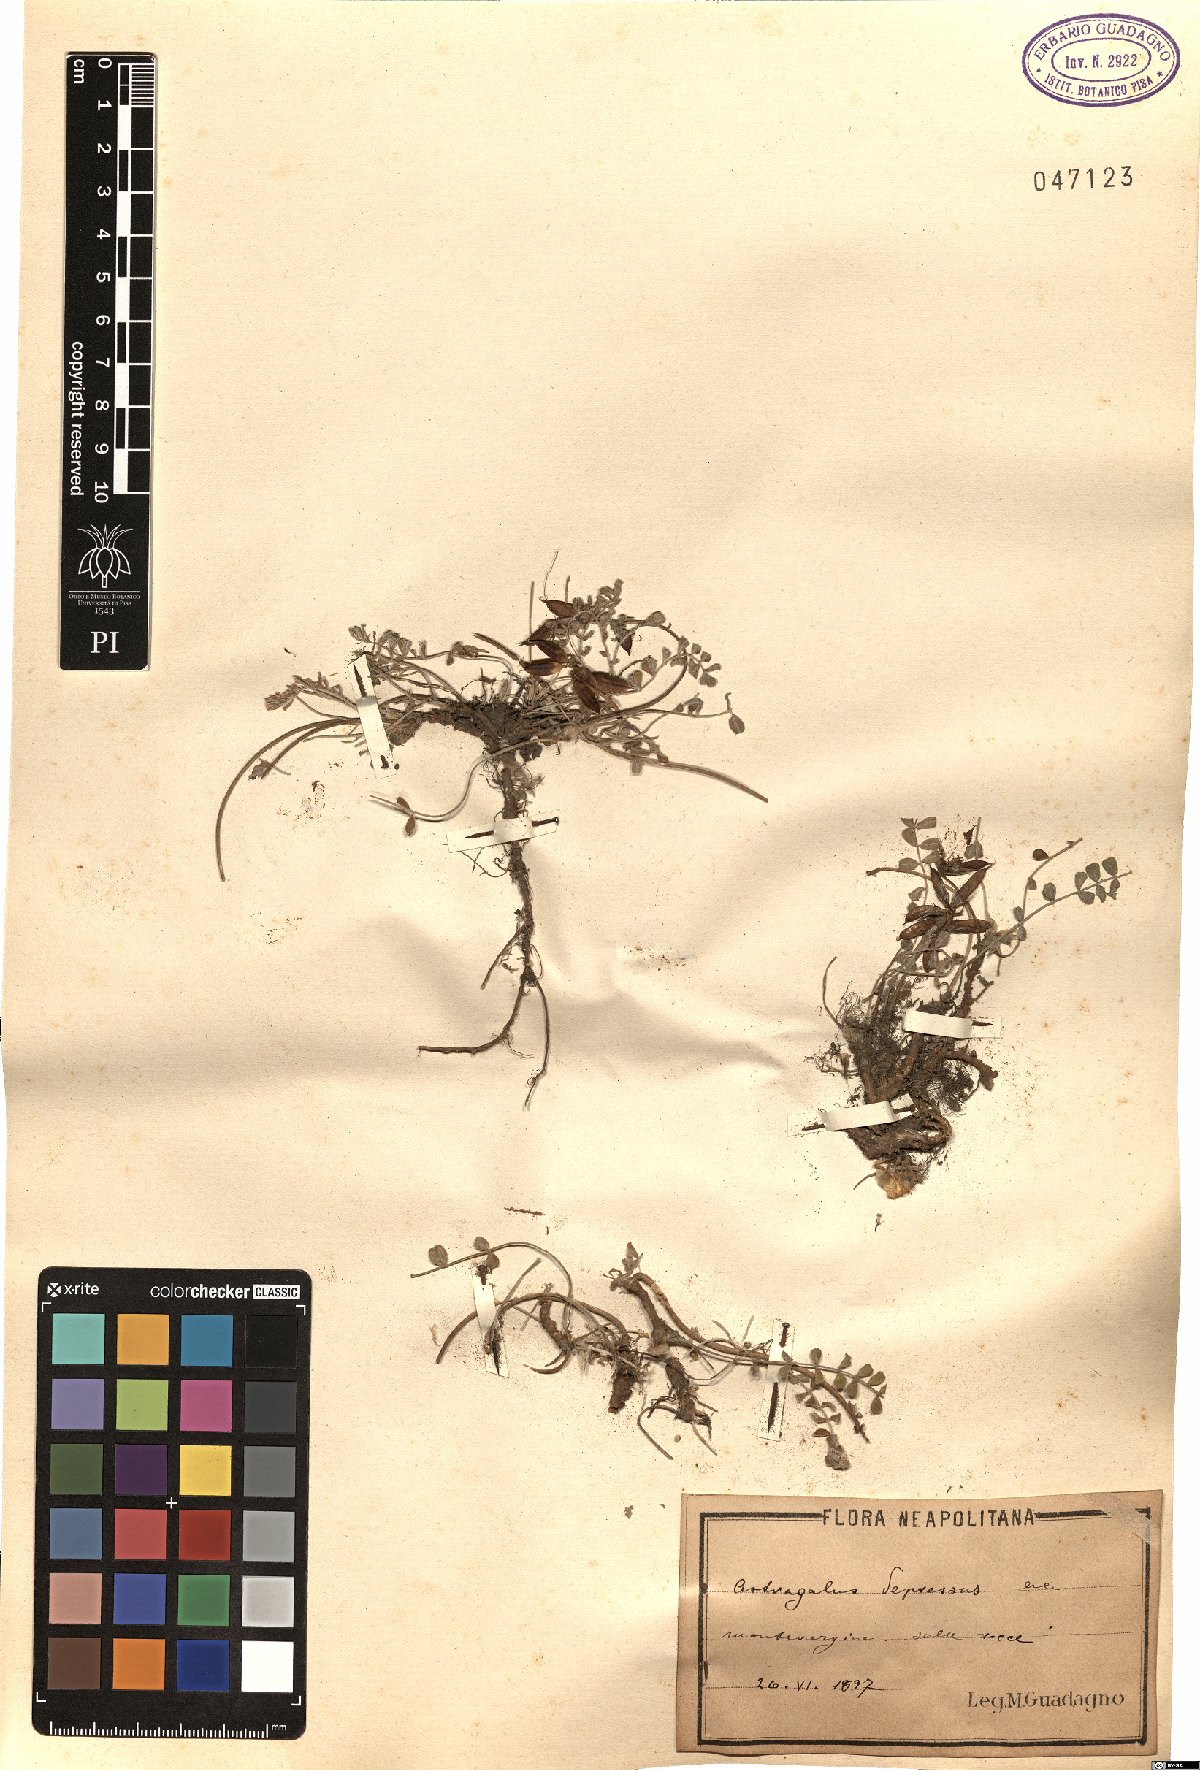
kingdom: Plantae
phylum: Tracheophyta
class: Magnoliopsida
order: Fabales
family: Fabaceae
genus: Astragalus
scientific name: Astragalus depressus
